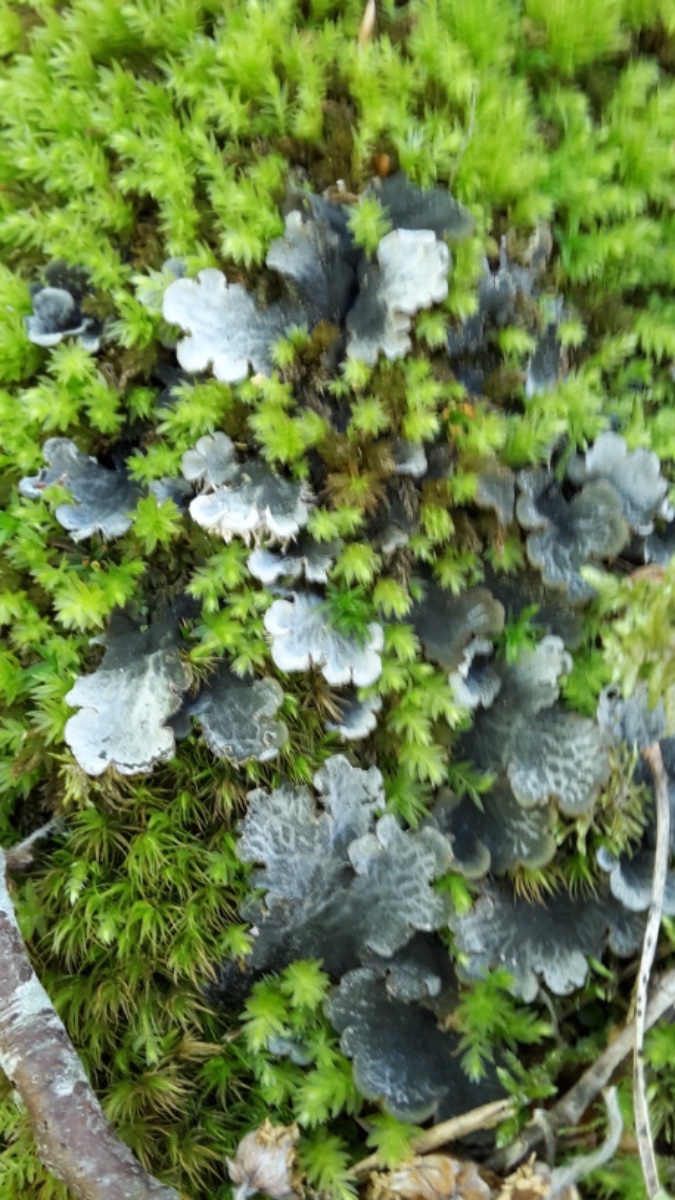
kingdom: Fungi
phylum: Ascomycota
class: Lecanoromycetes
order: Peltigerales
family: Peltigeraceae
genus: Peltigera
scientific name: Peltigera membranacea
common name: tynd skjoldlav
